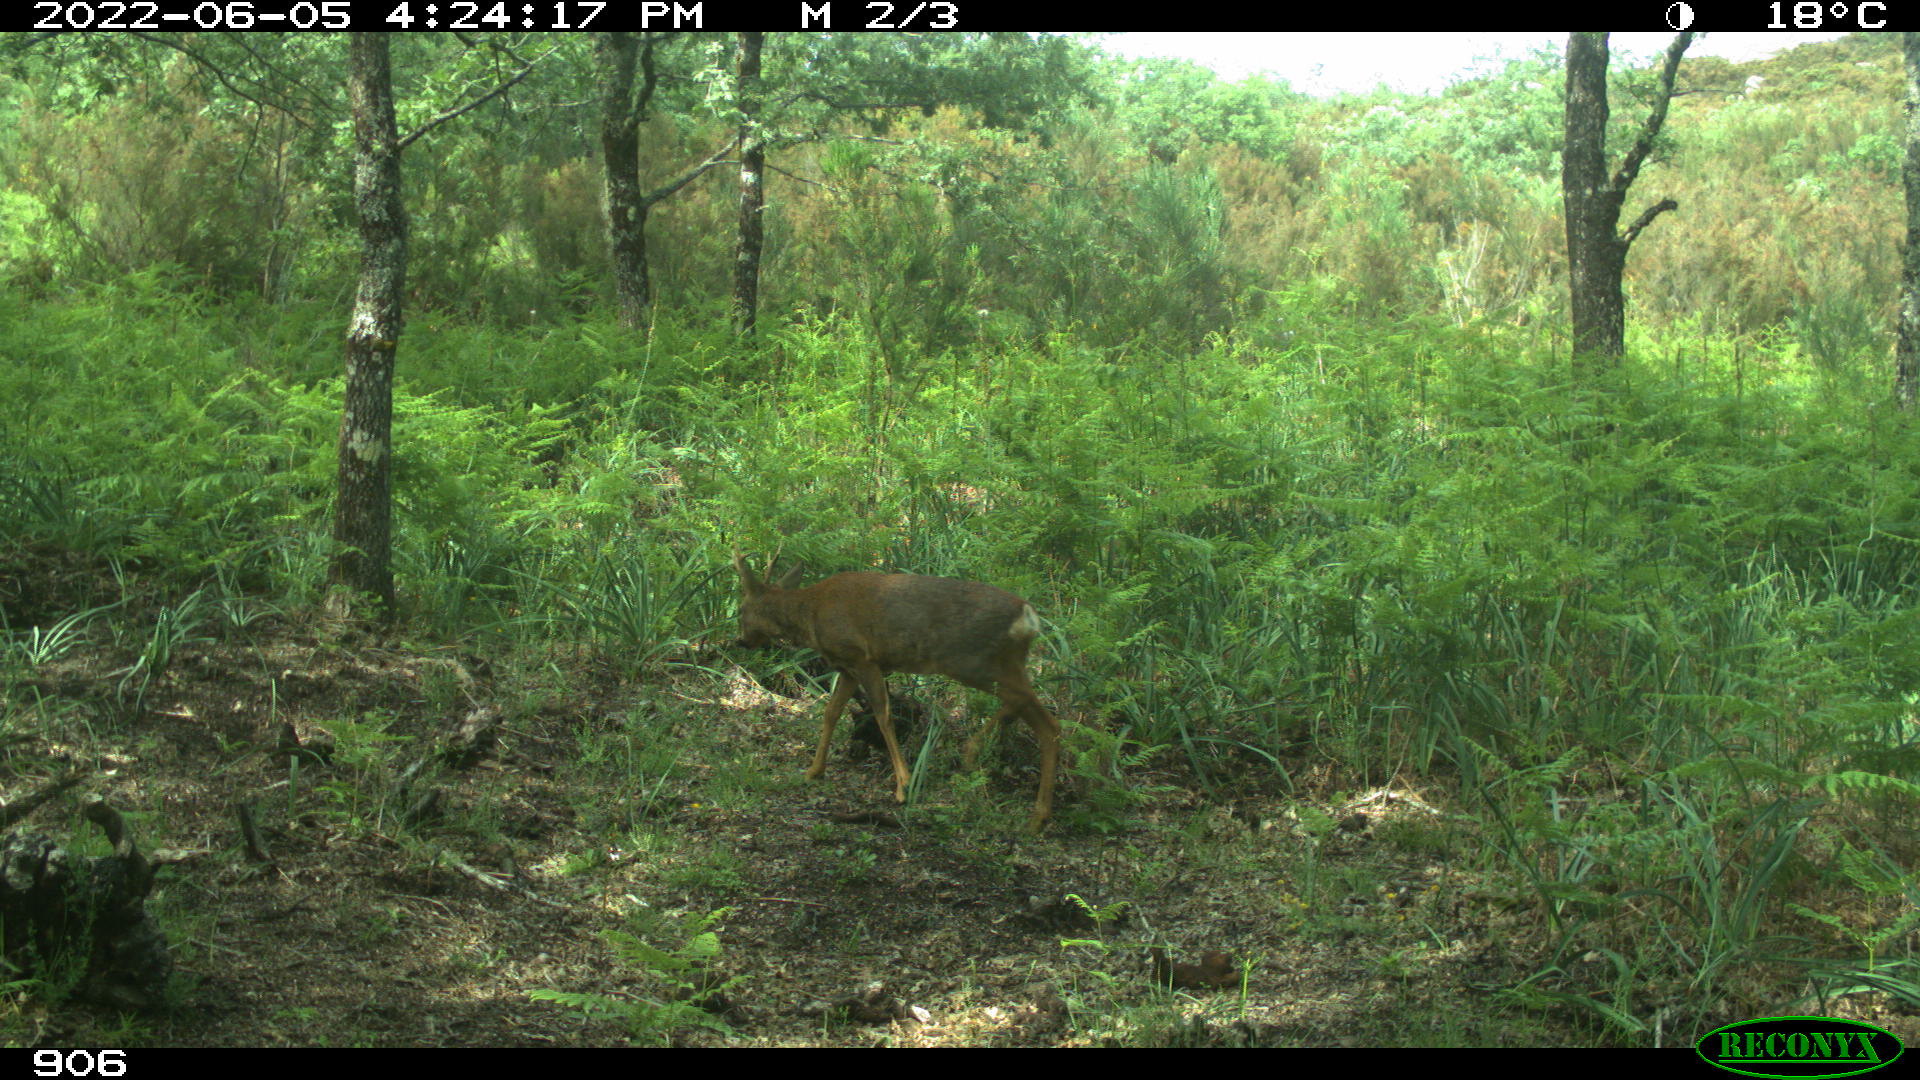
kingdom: Animalia
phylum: Chordata
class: Mammalia
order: Artiodactyla
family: Cervidae
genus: Capreolus
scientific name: Capreolus capreolus
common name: Western roe deer
